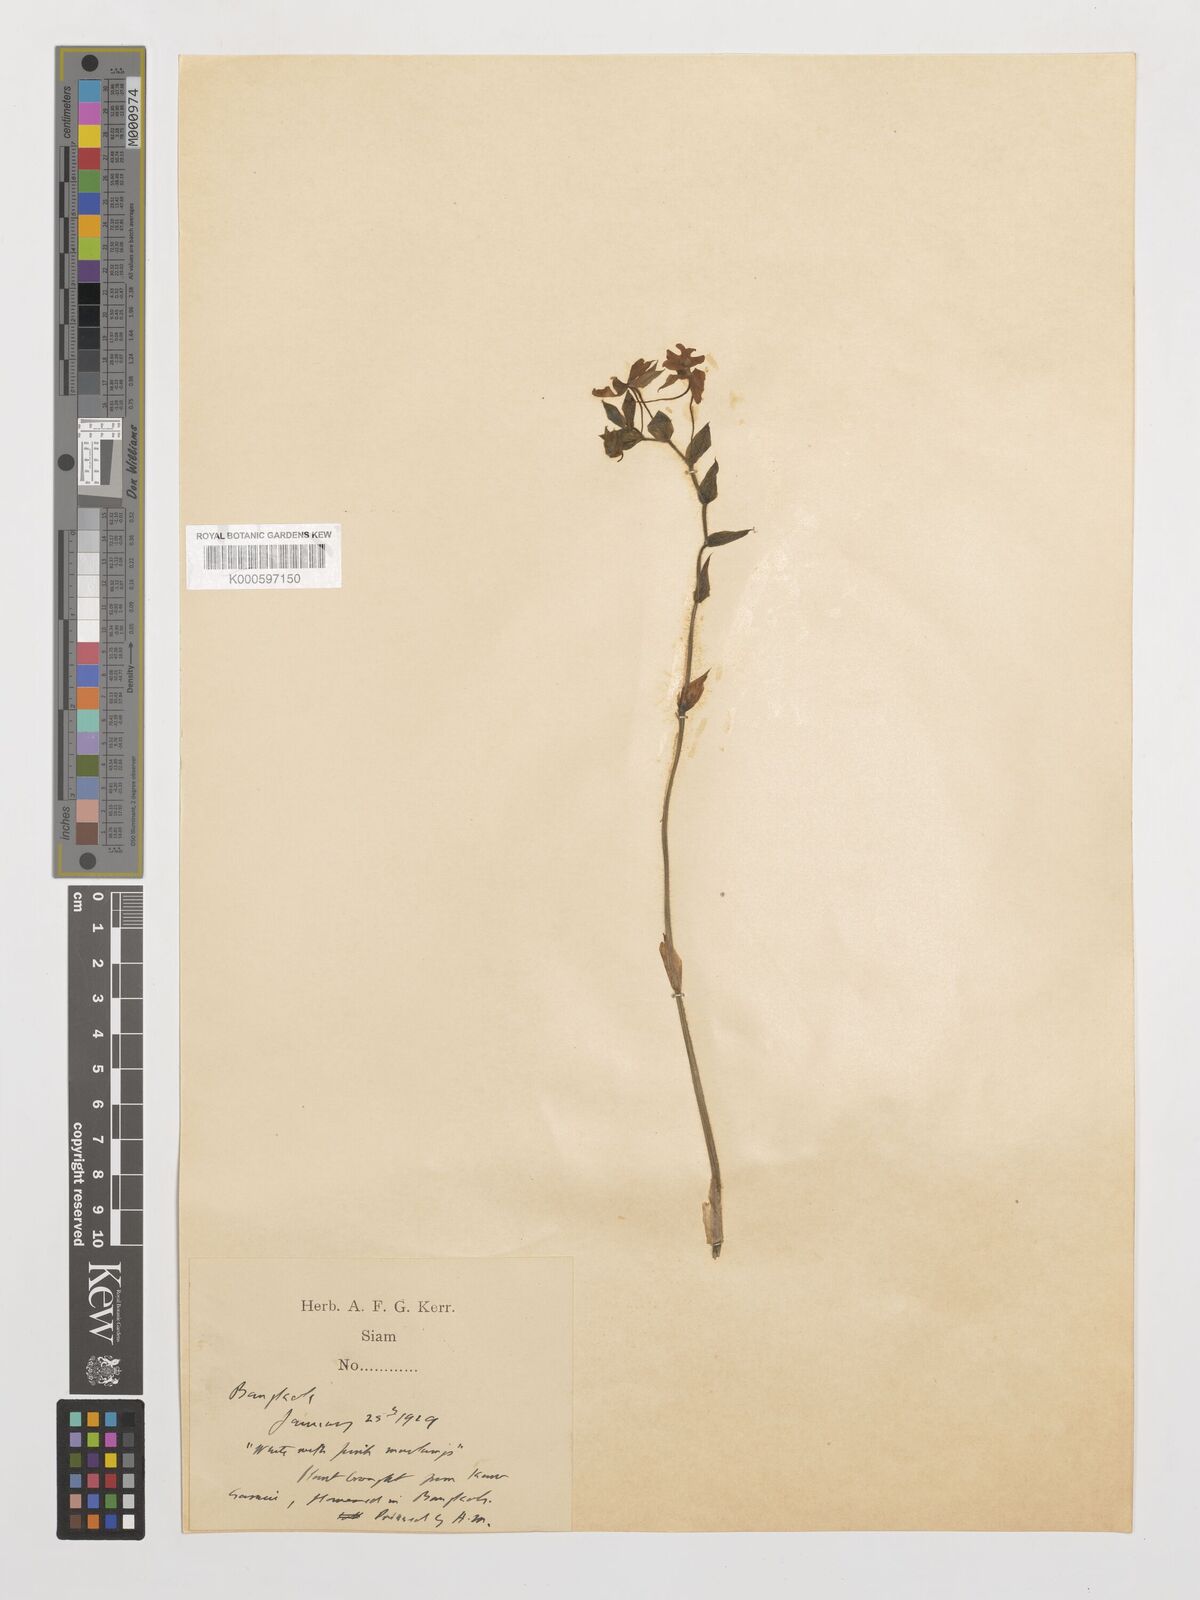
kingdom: Plantae
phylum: Tracheophyta
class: Liliopsida
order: Asparagales
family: Orchidaceae
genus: Calanthe
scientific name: Calanthe rubens
